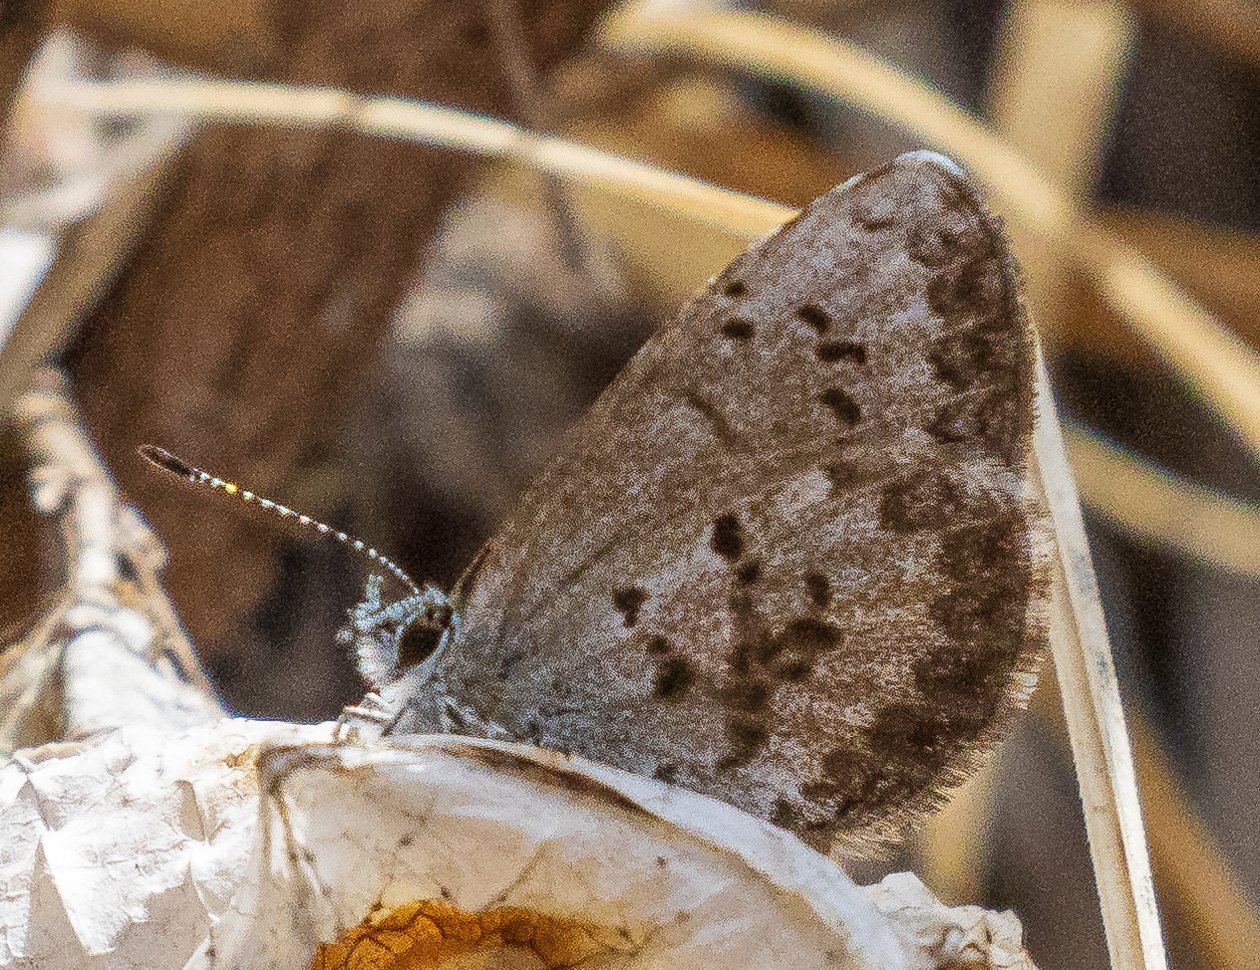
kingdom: Animalia
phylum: Arthropoda
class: Insecta
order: Lepidoptera
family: Lycaenidae
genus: Celastrina
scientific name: Celastrina ladon
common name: Spring Azure
